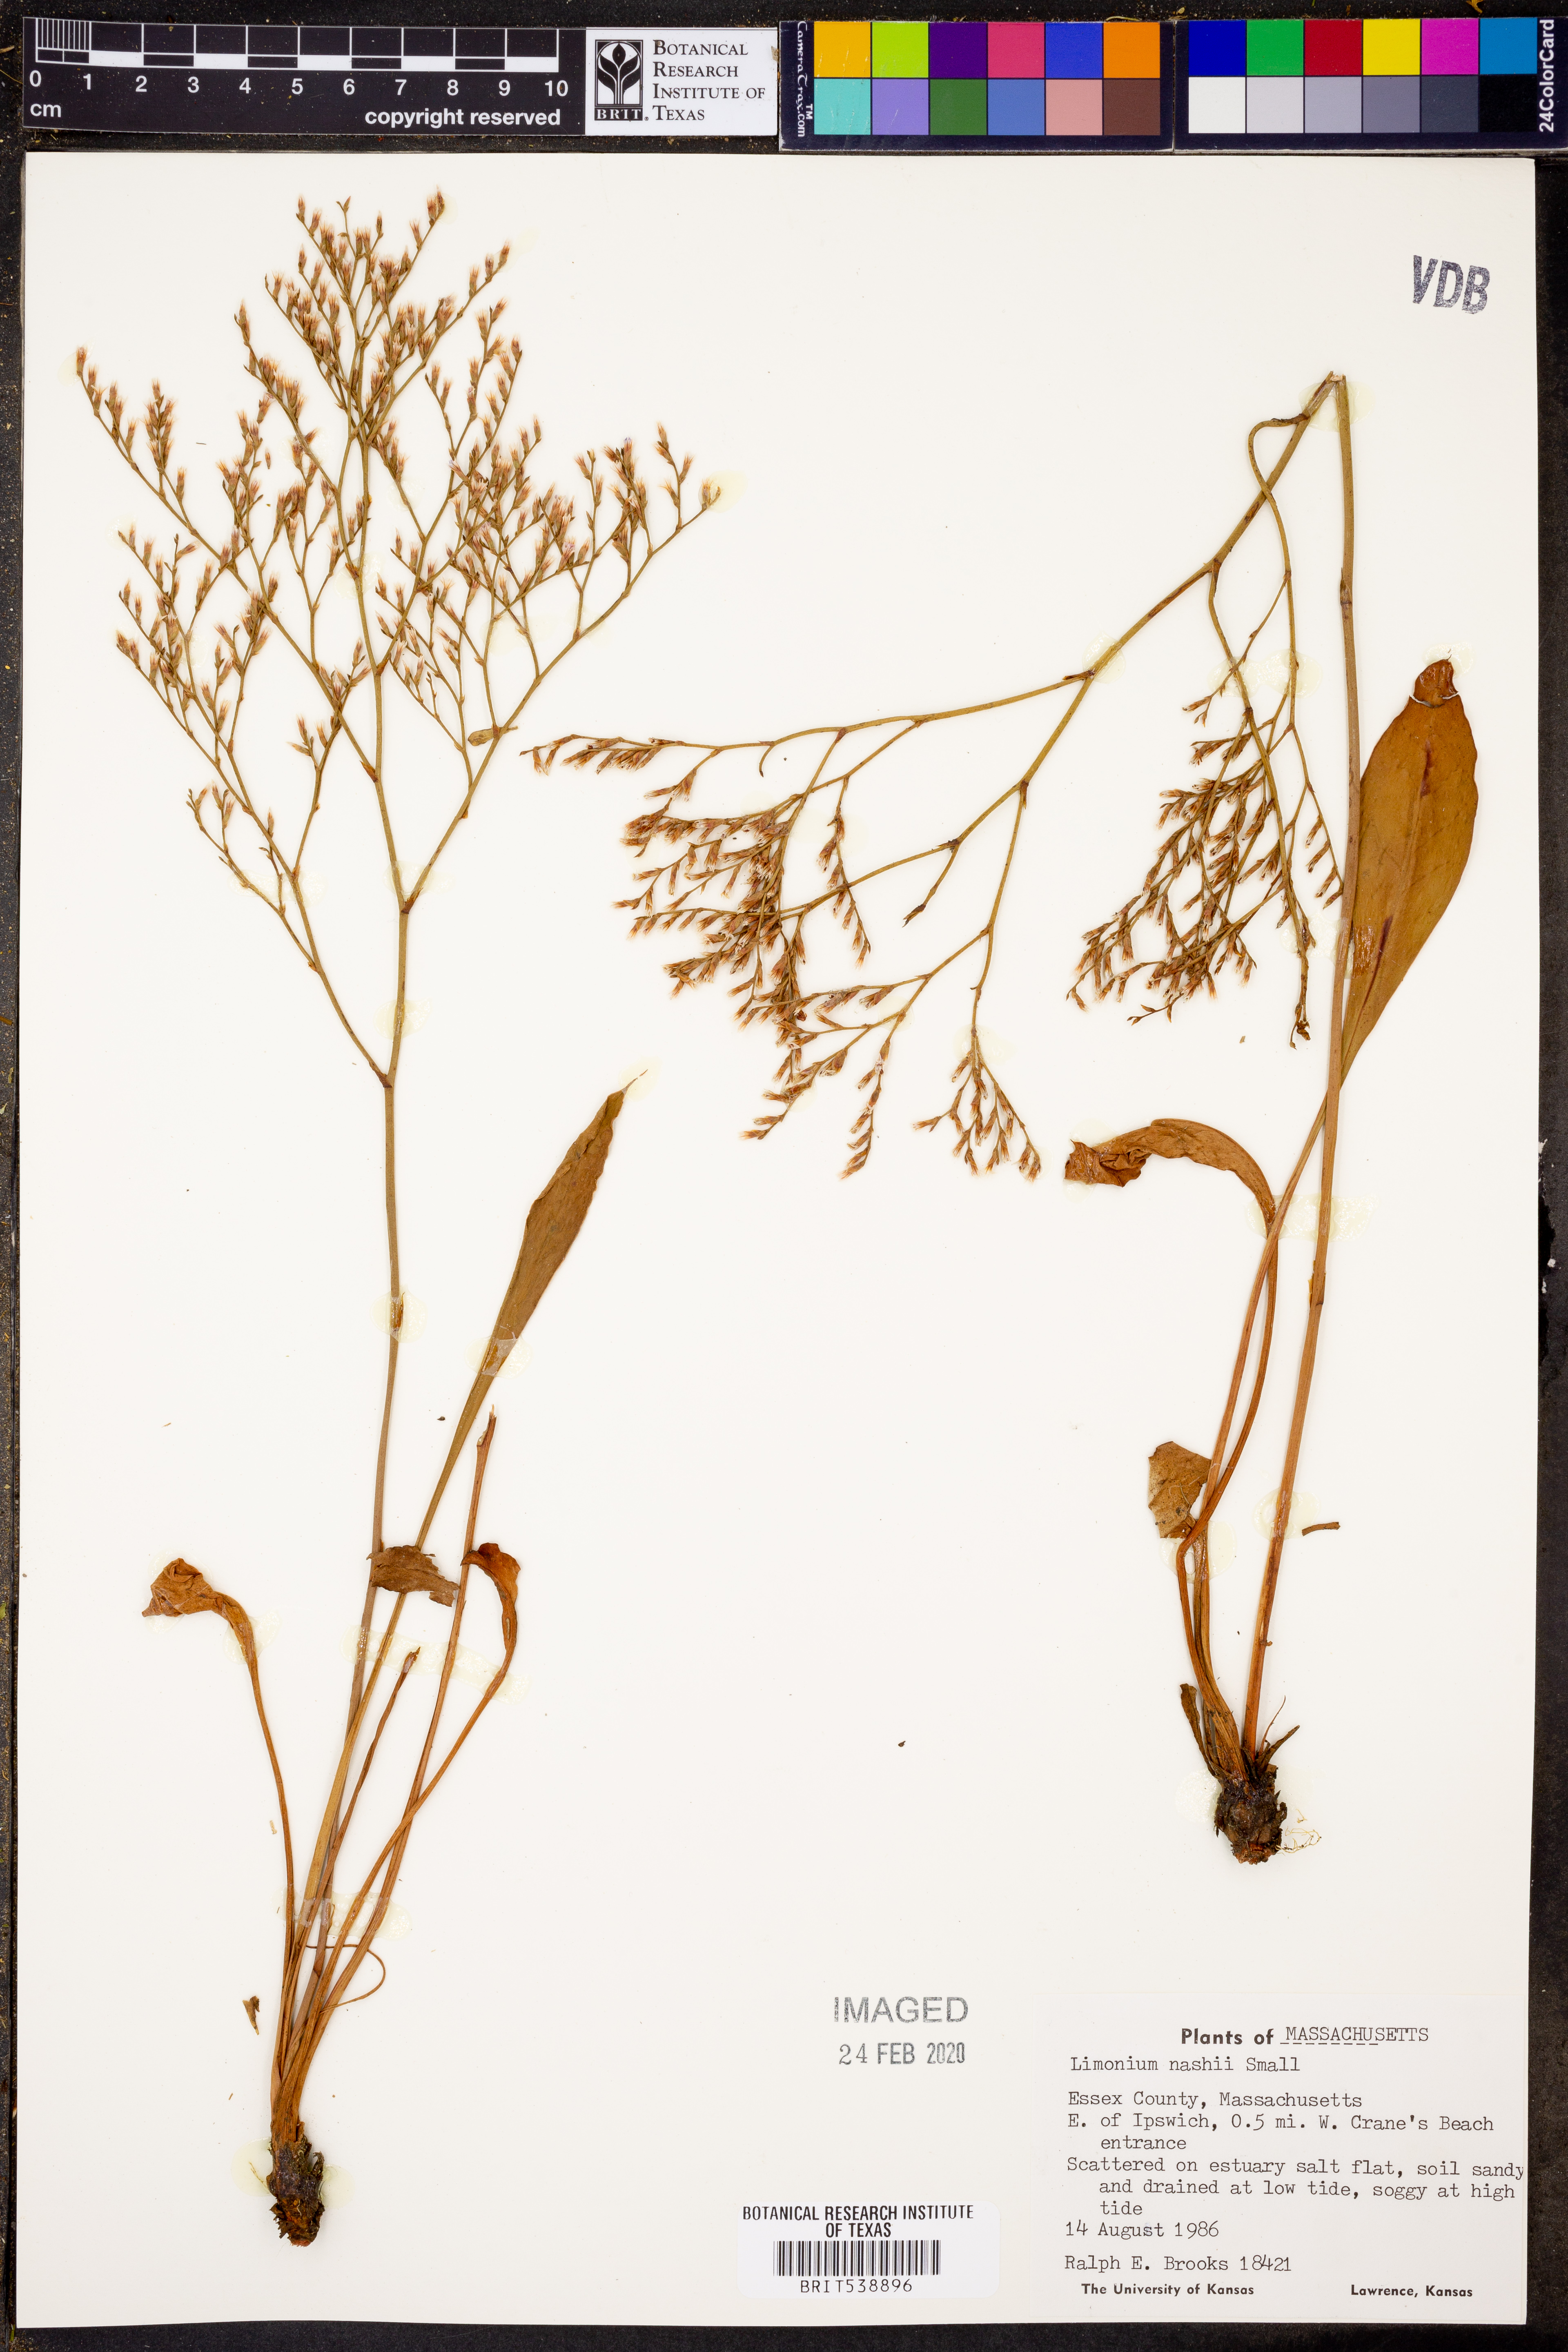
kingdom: Plantae
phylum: Tracheophyta
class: Magnoliopsida
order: Caryophyllales
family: Plumbaginaceae
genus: Limonium
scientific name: Limonium carolinianum
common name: Carolina sea lavender
